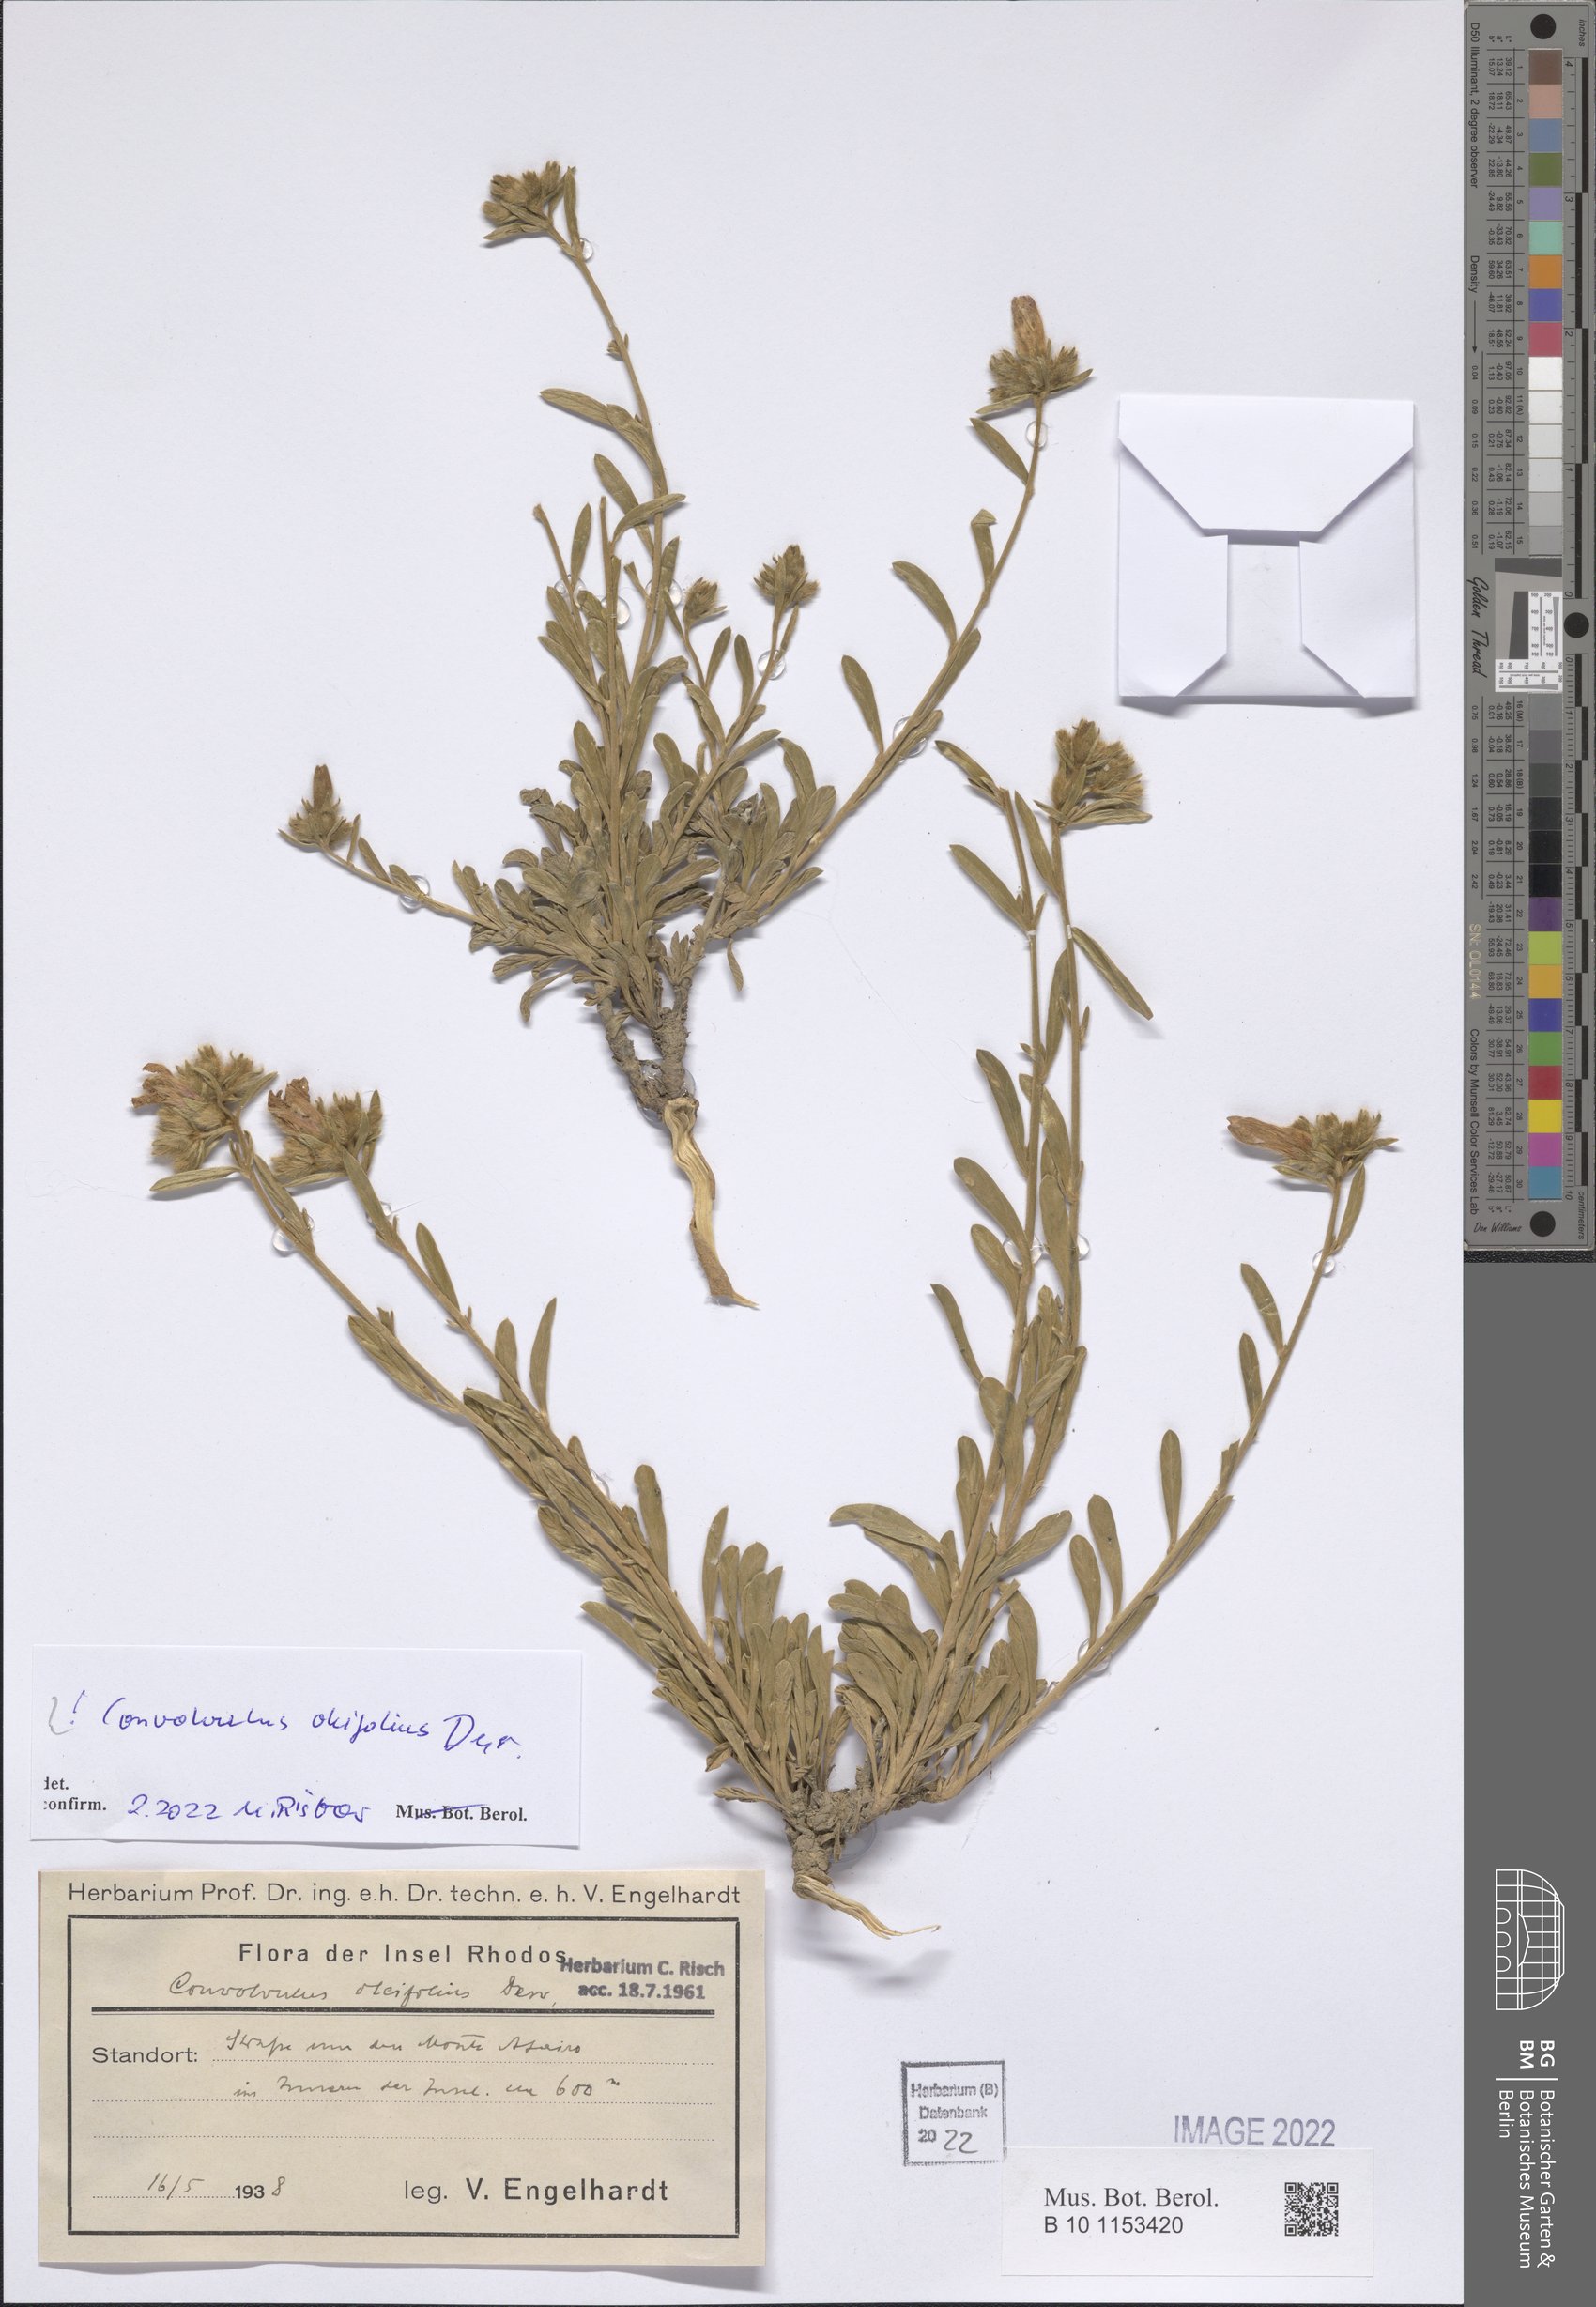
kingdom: Plantae
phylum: Tracheophyta
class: Magnoliopsida
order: Solanales
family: Convolvulaceae
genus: Convolvulus
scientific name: Convolvulus oleifolius
